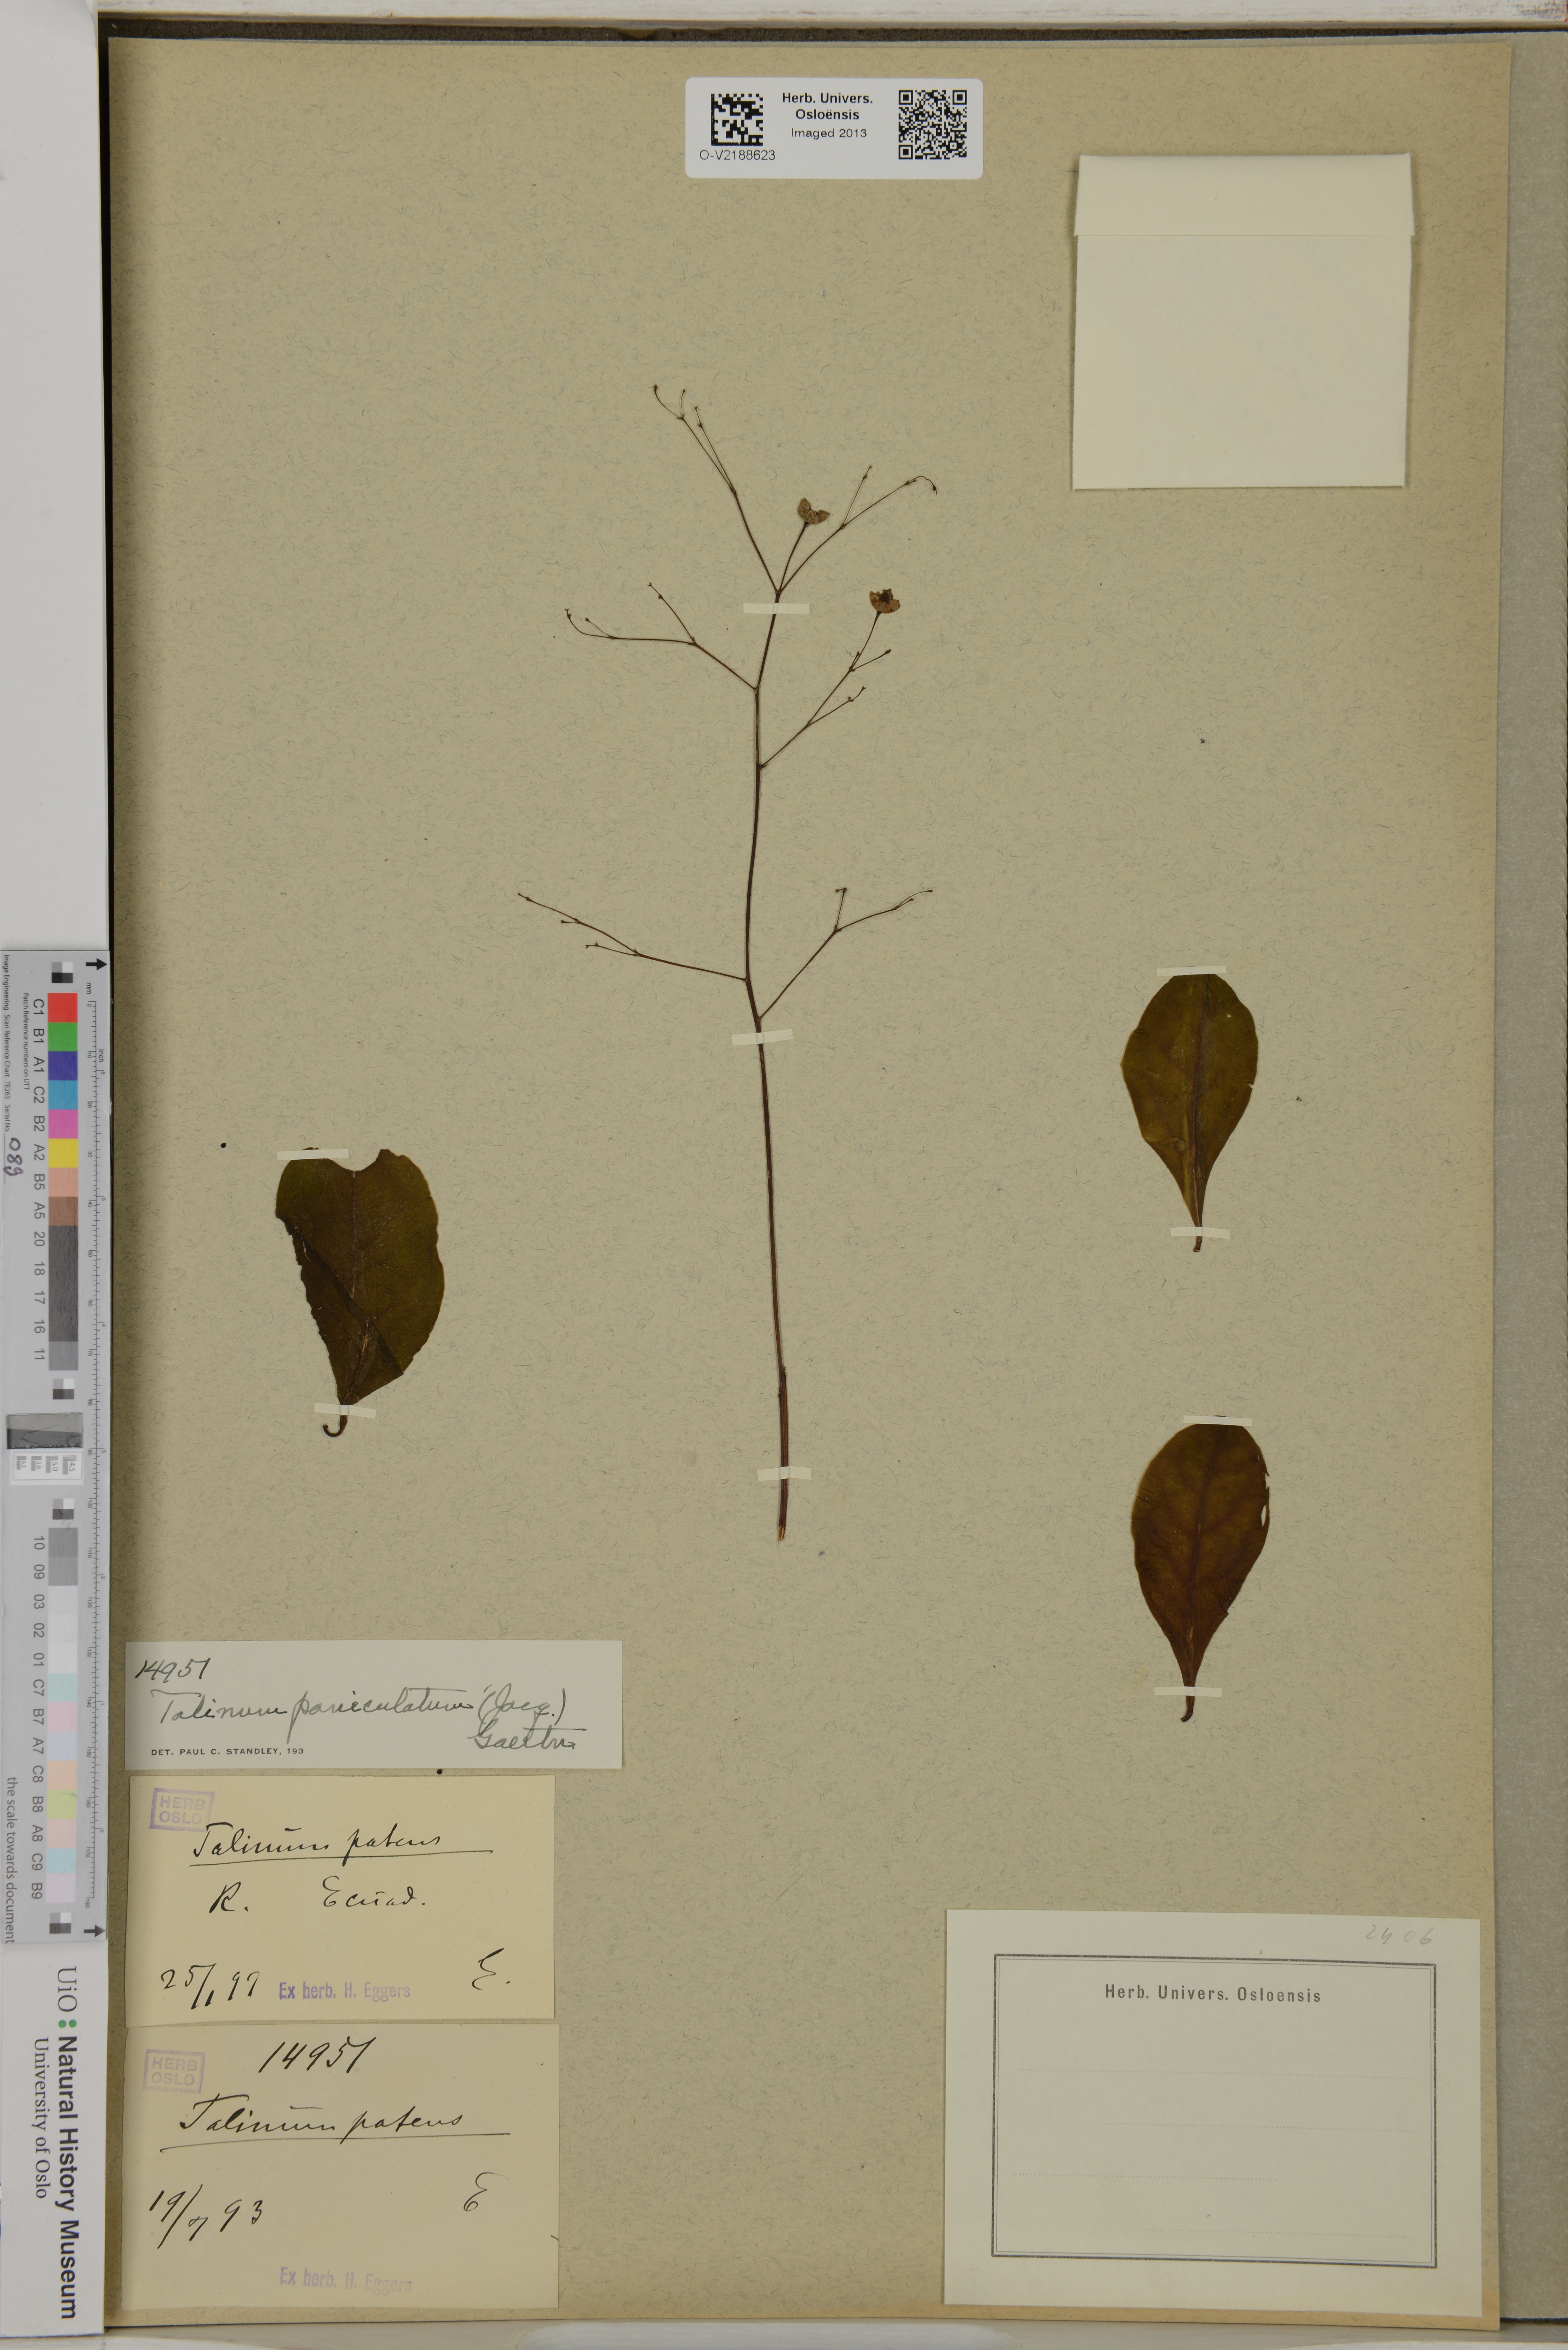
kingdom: Plantae
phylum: Tracheophyta
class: Magnoliopsida
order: Caryophyllales
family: Talinaceae
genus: Talinum
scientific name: Talinum
